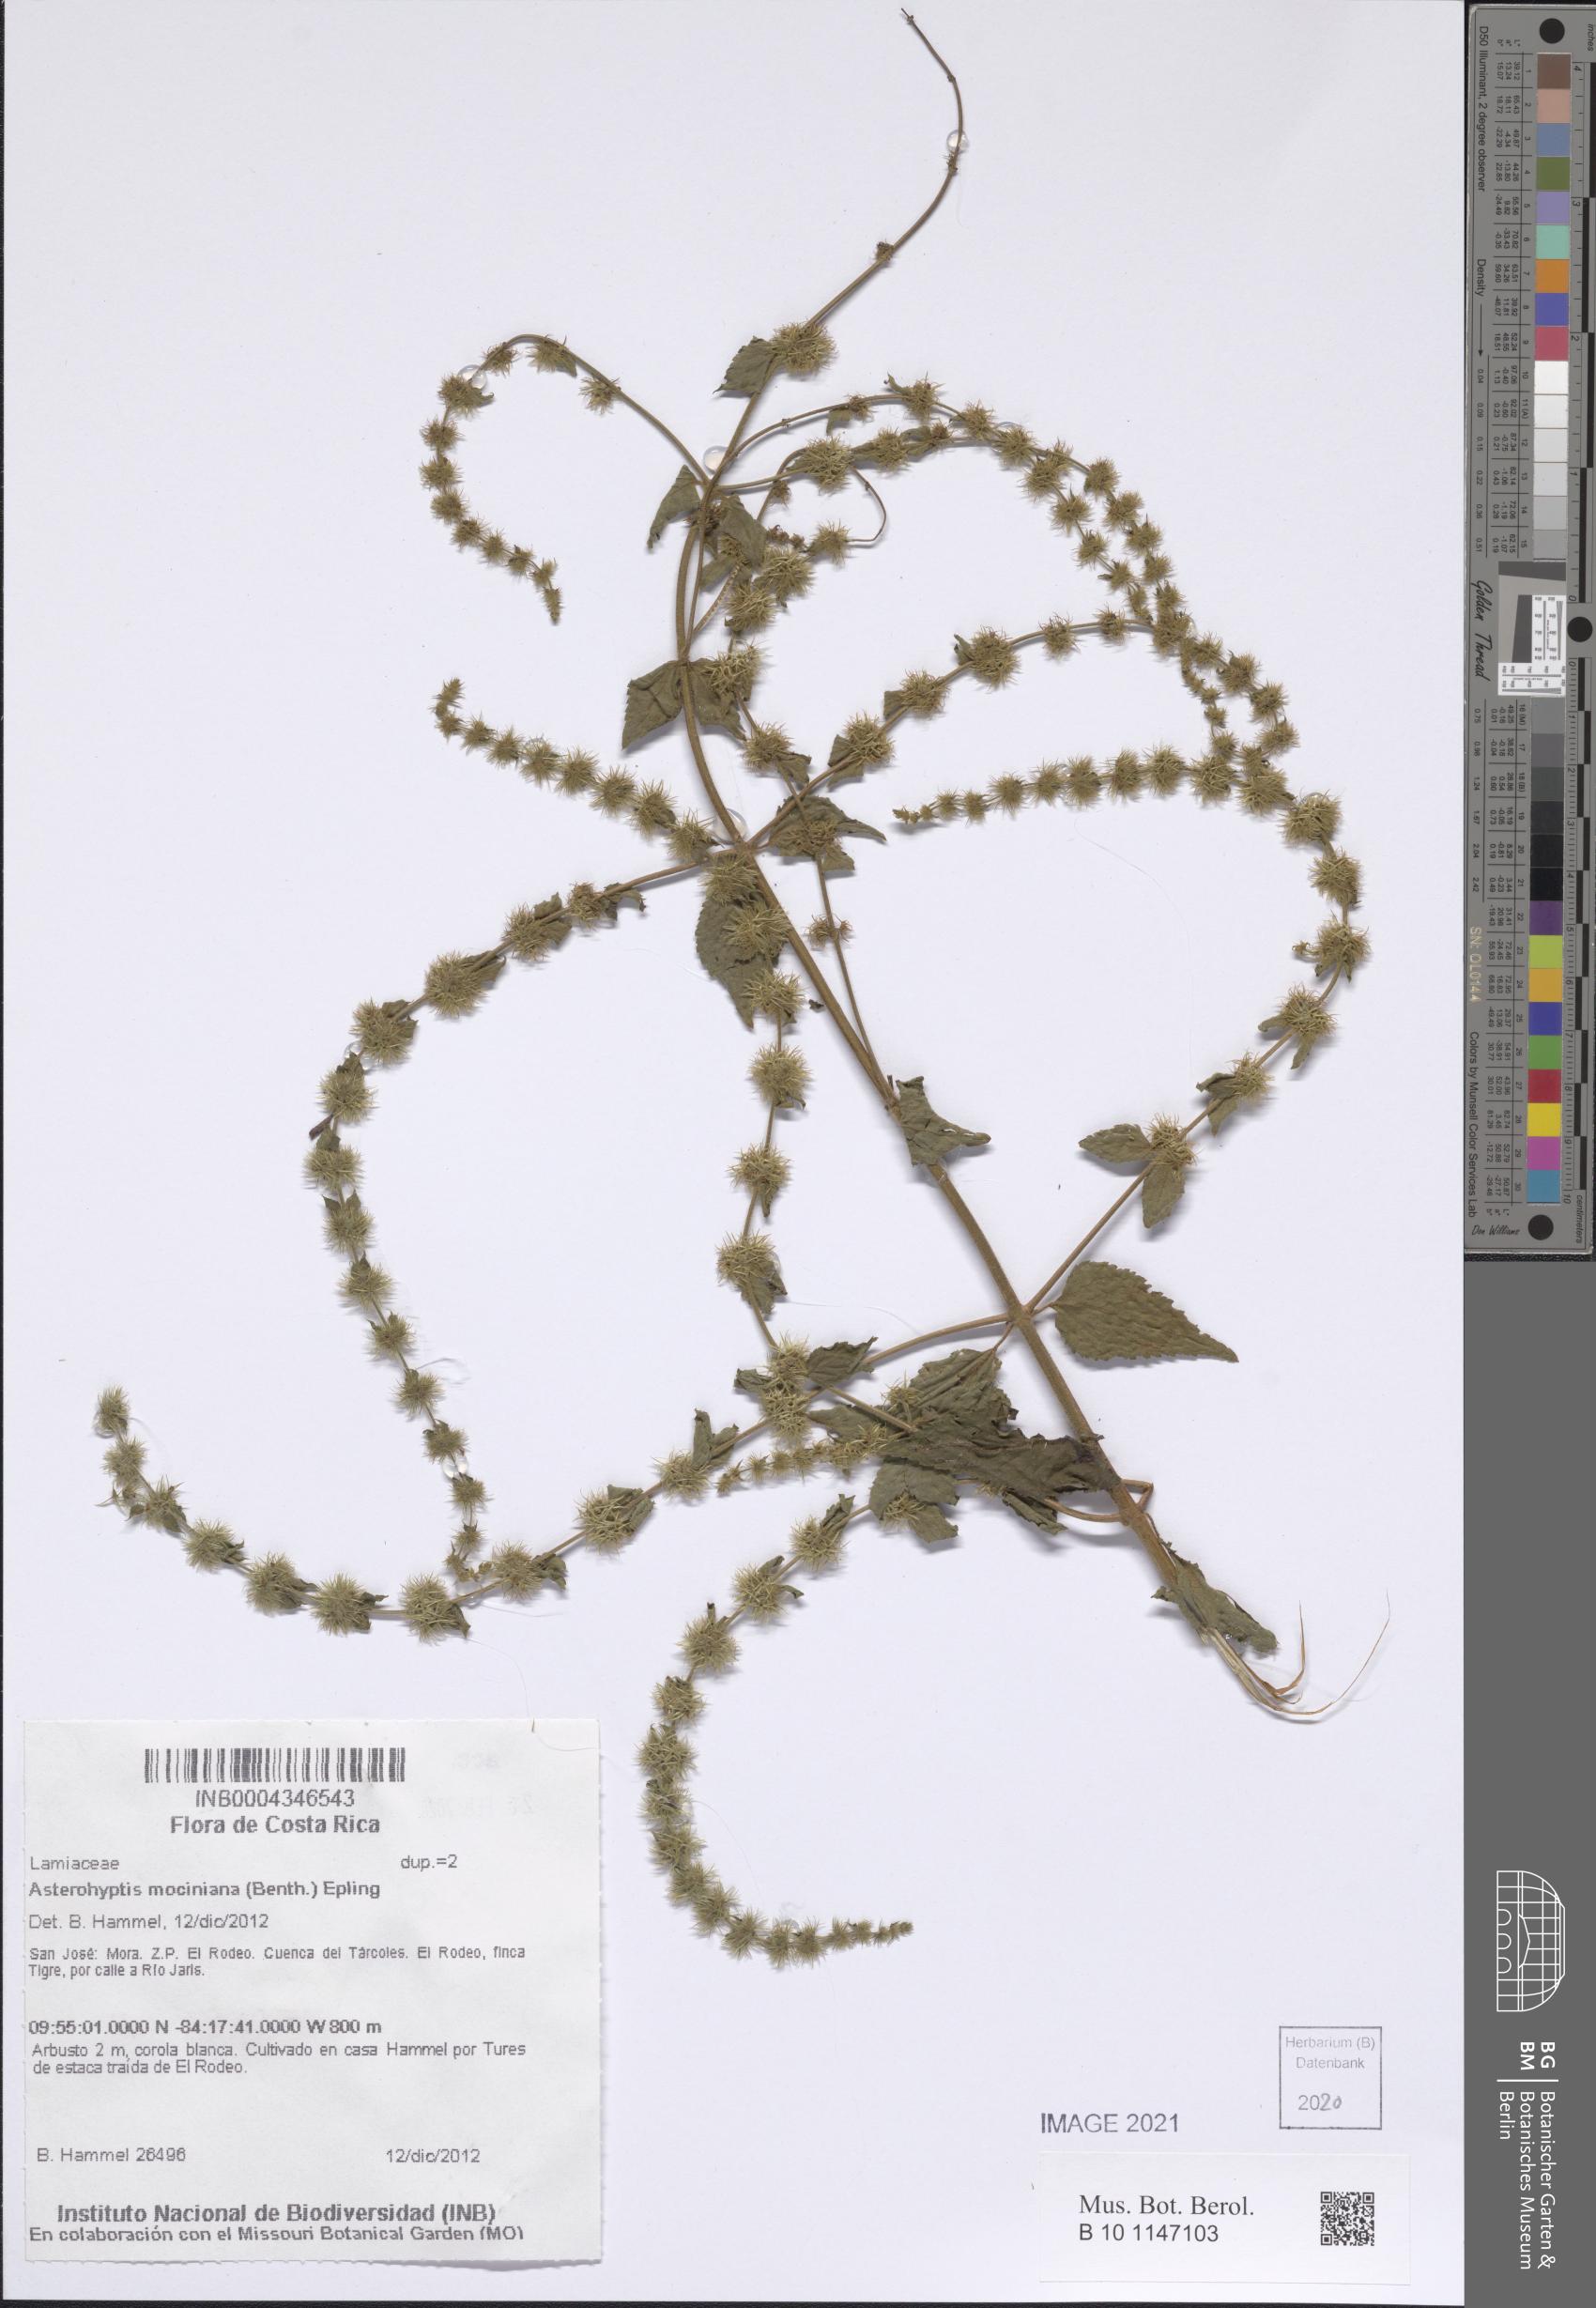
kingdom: Plantae
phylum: Tracheophyta
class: Magnoliopsida
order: Lamiales
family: Lamiaceae
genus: Asterohyptis
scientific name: Asterohyptis mociniana
